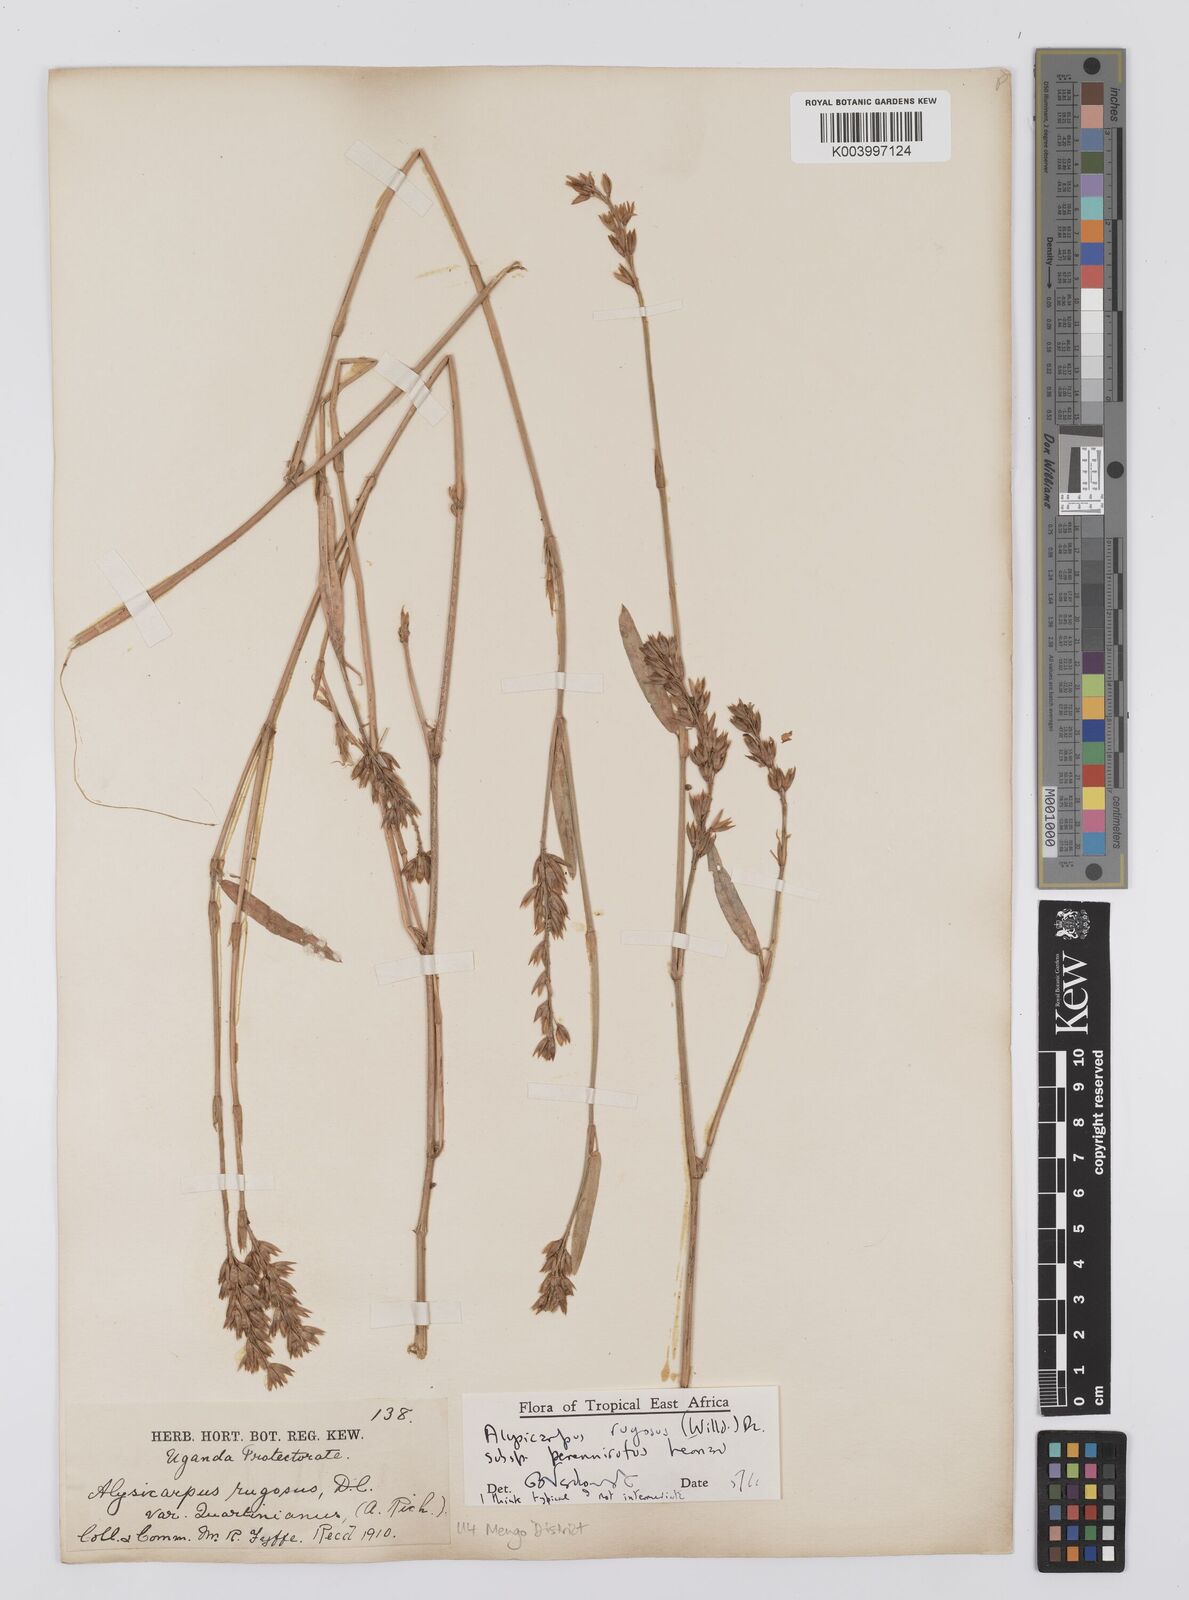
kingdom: Plantae
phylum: Tracheophyta
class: Magnoliopsida
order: Fabales
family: Fabaceae
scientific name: Fabaceae
